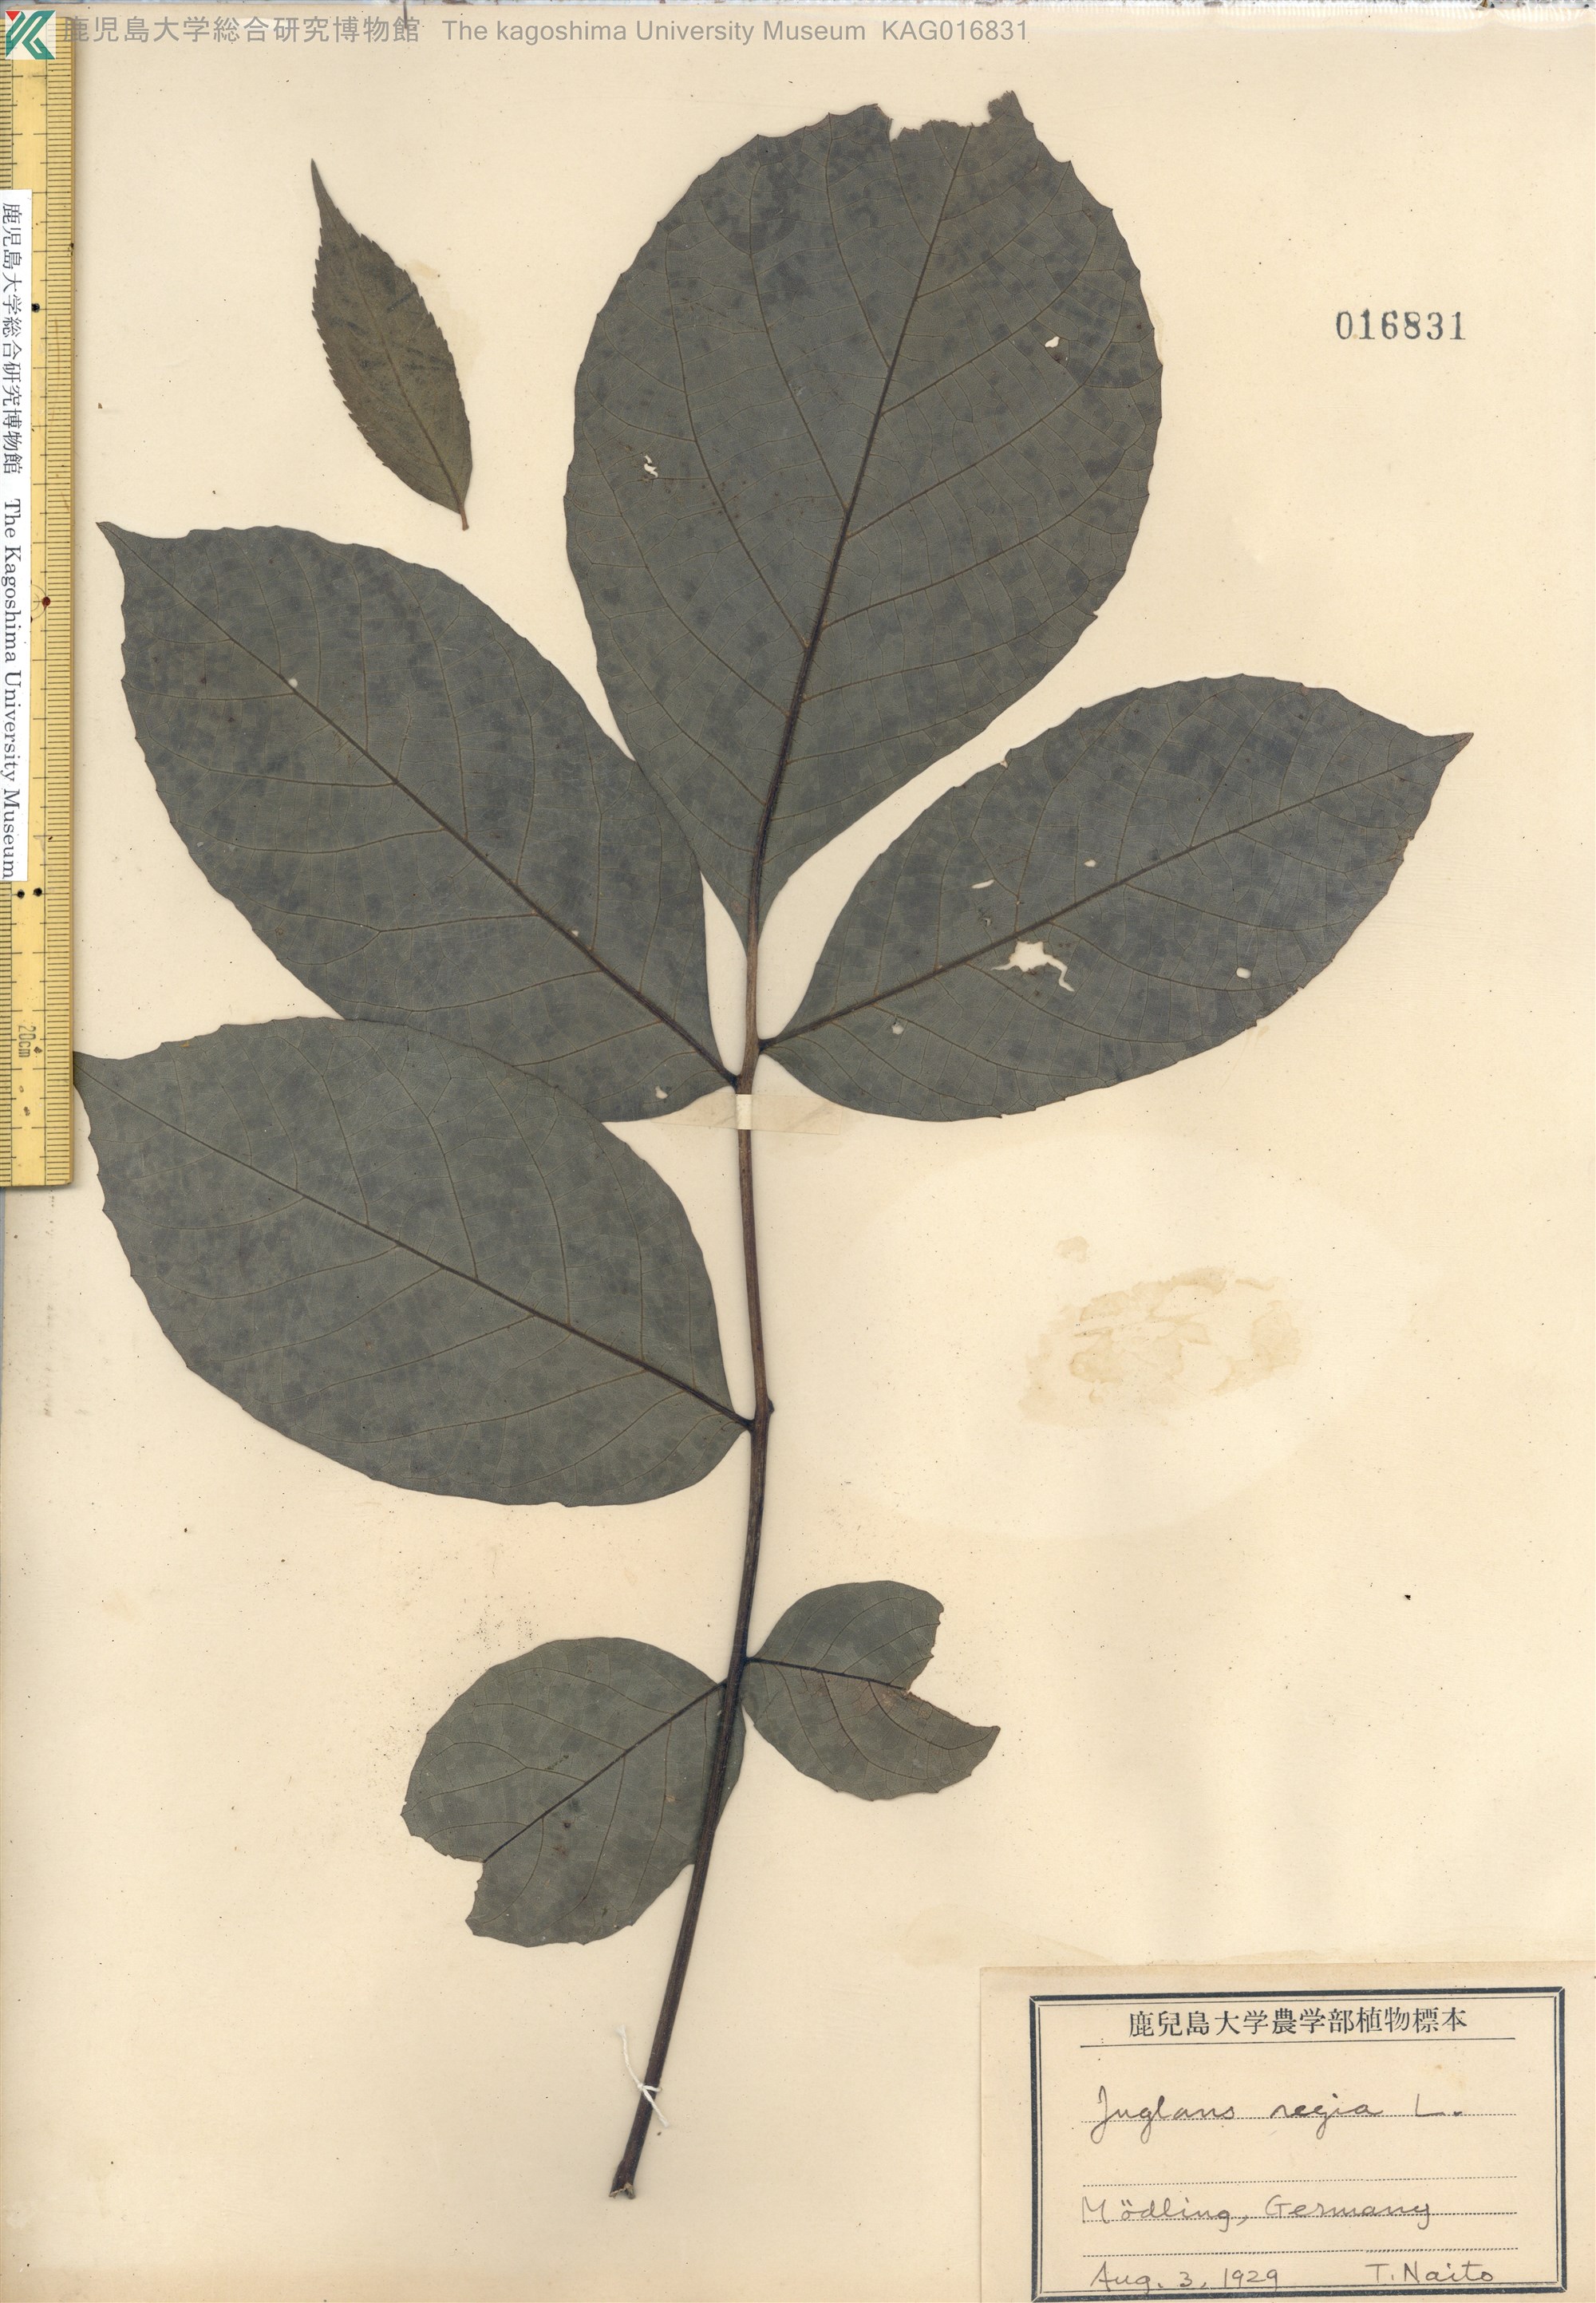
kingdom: Plantae
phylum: Tracheophyta
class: Magnoliopsida
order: Fagales
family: Juglandaceae
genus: Juglans
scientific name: Juglans regia
